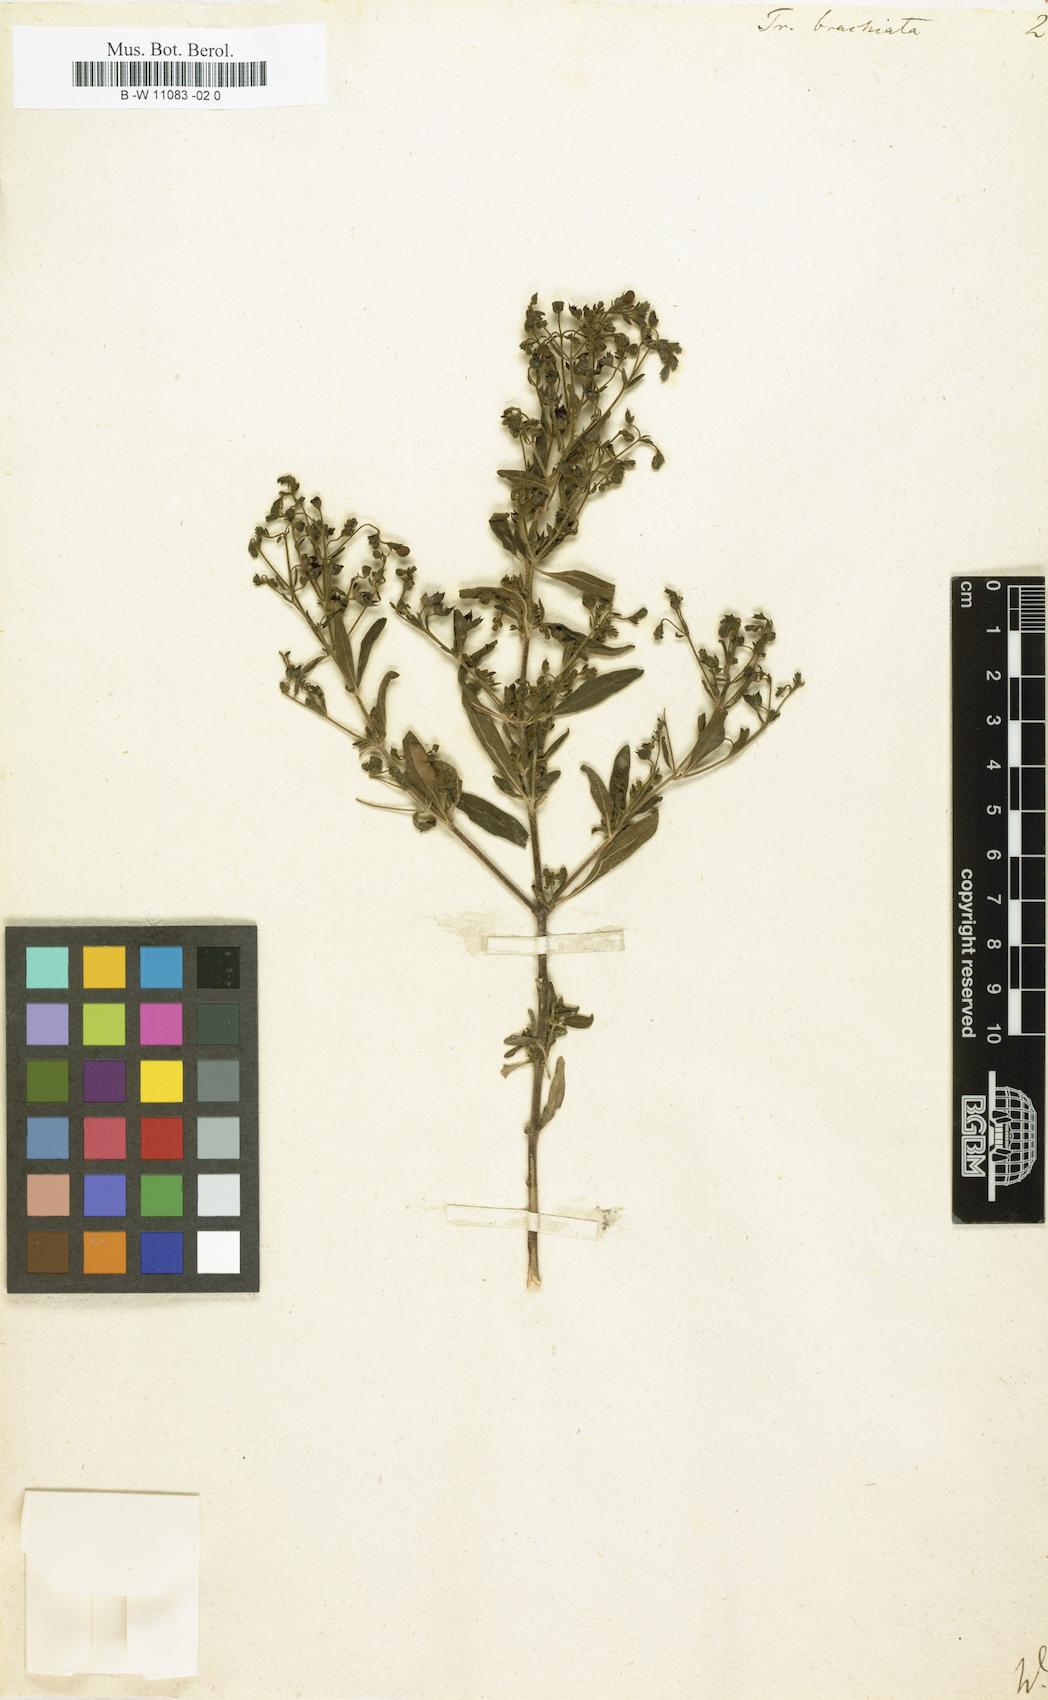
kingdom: Plantae
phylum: Tracheophyta
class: Magnoliopsida
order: Lamiales
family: Lamiaceae
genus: Trichostema
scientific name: Trichostema brachiatum
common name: False pennyroyal
